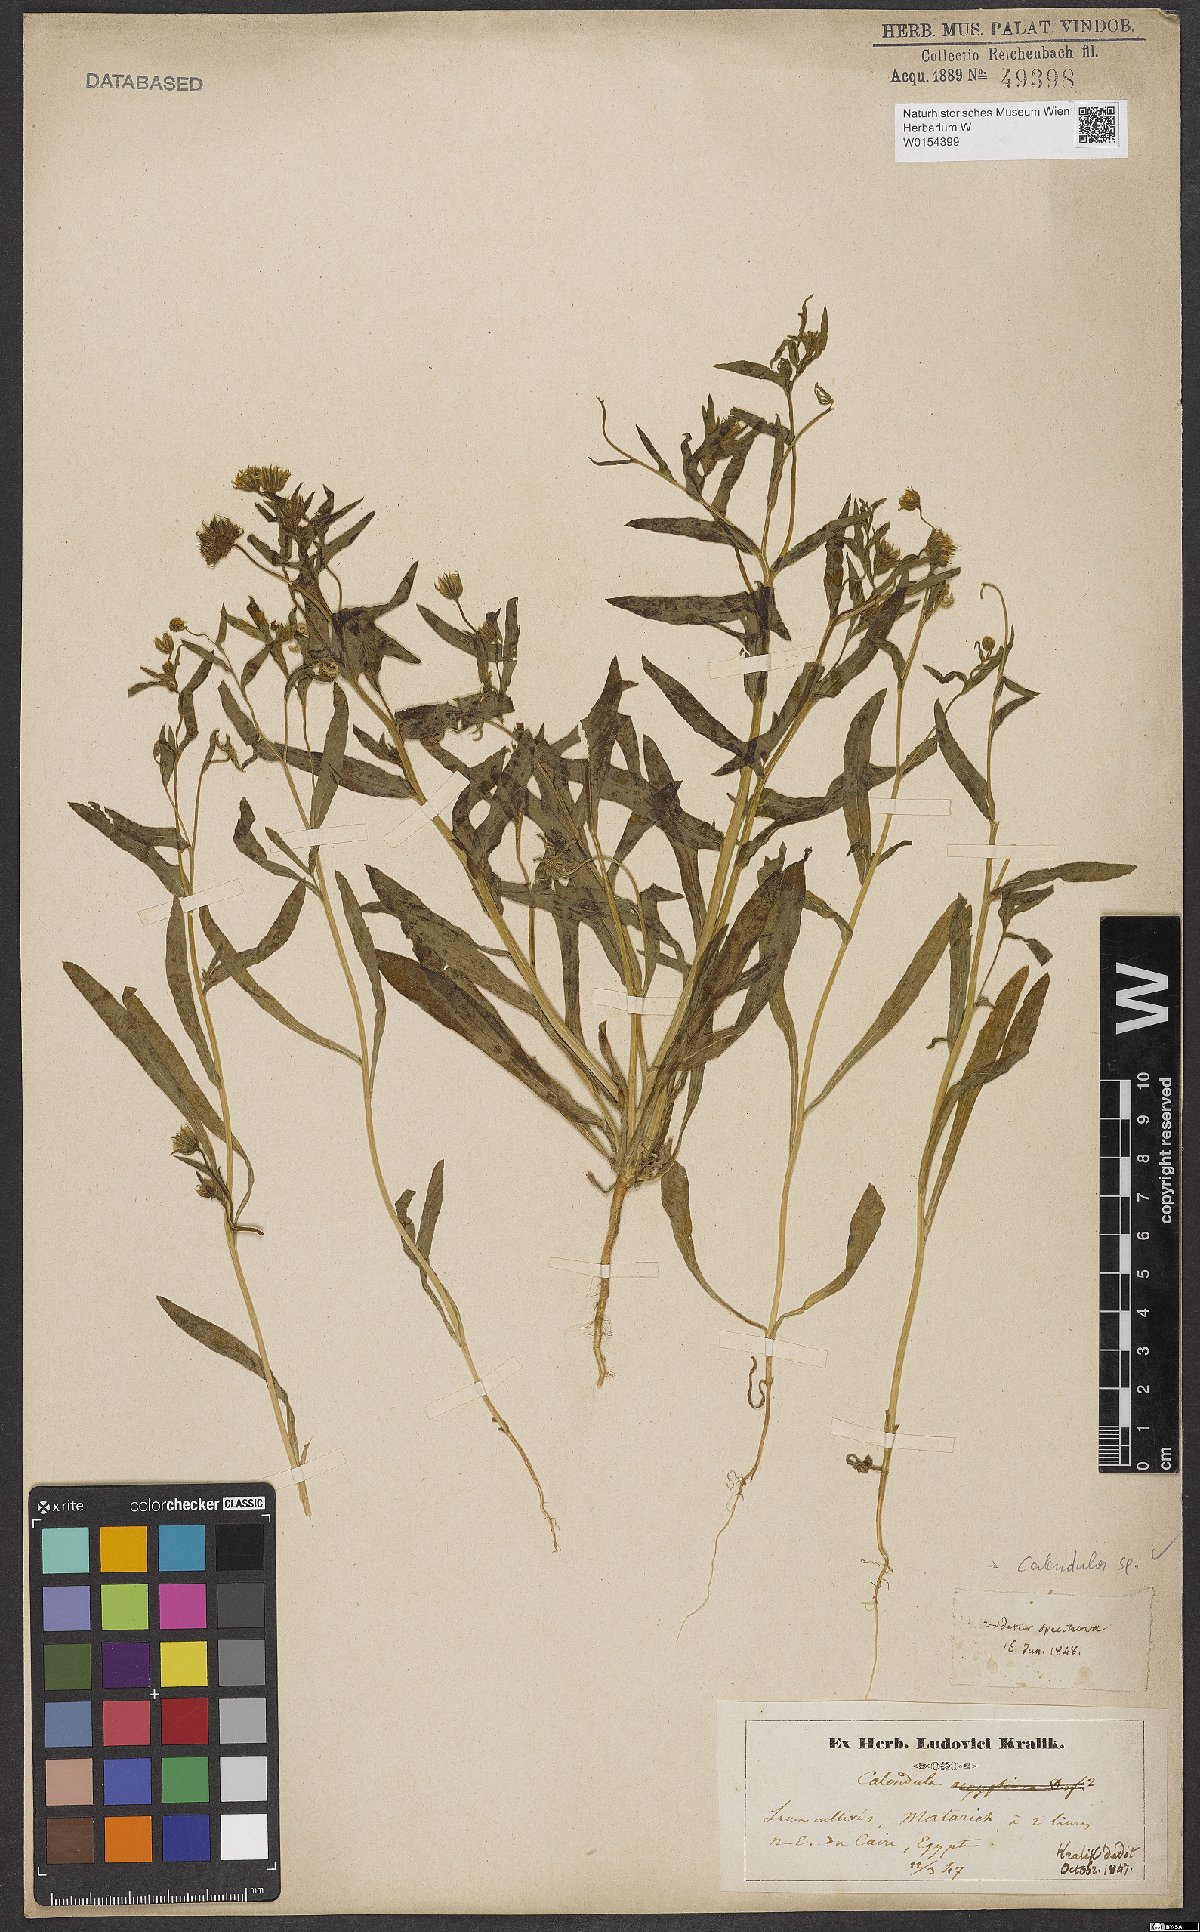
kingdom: Plantae
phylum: Tracheophyta
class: Magnoliopsida
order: Asterales
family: Asteraceae
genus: Calendula
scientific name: Calendula
